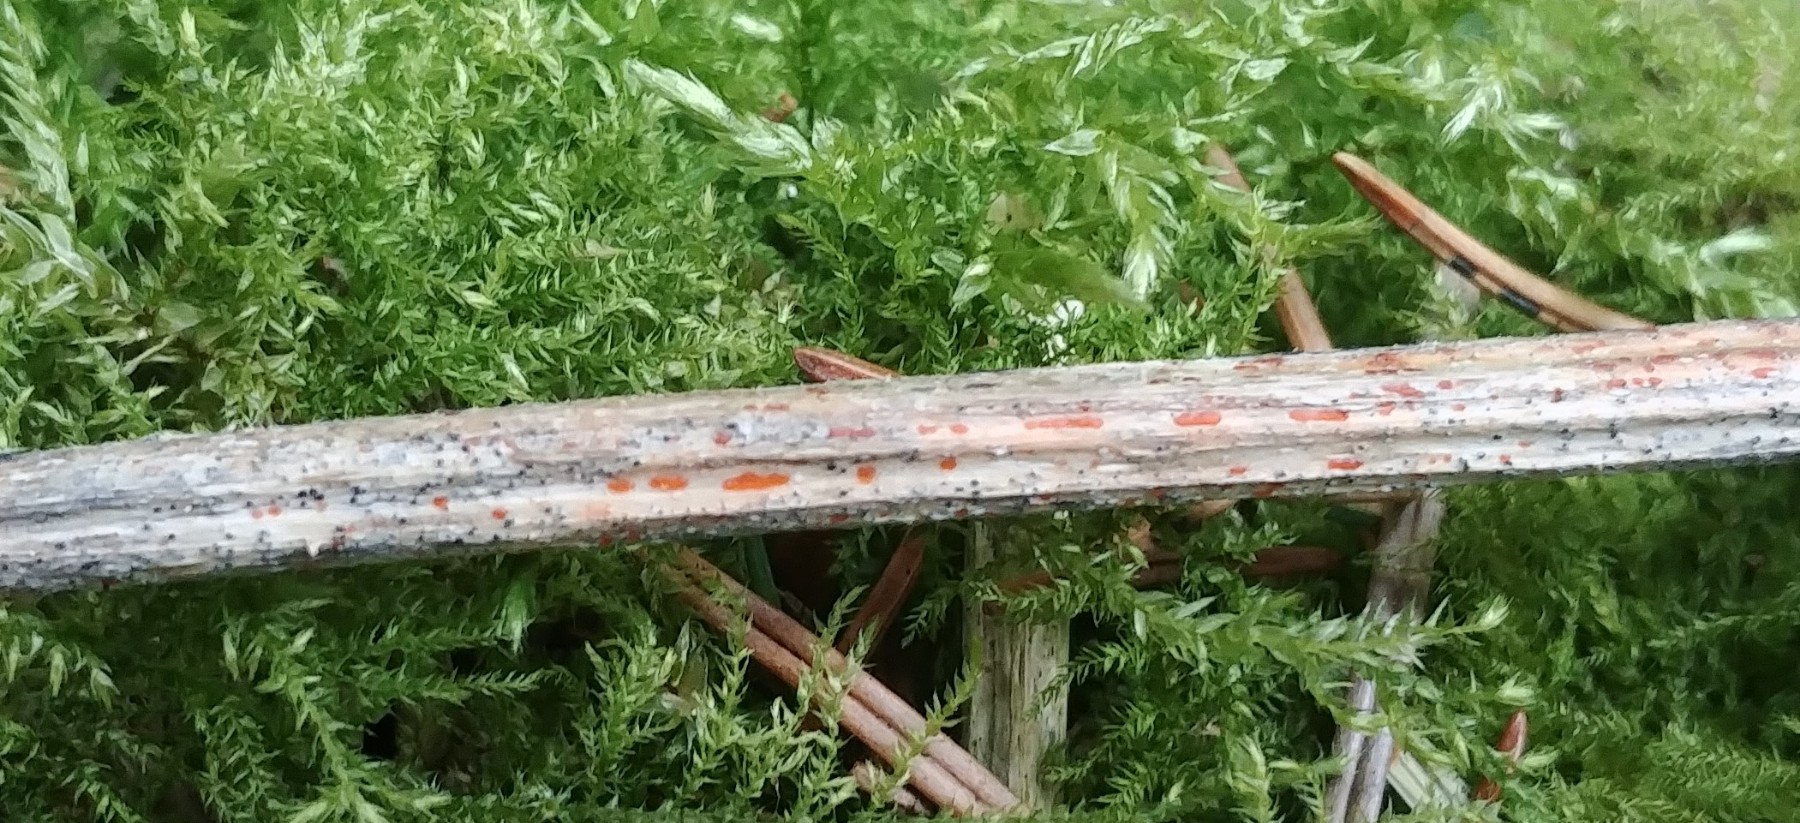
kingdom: Fungi
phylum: Ascomycota
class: Leotiomycetes
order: Helotiales
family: Calloriaceae
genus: Calloria
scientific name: Calloria urticae
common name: nælde-orangeskive
